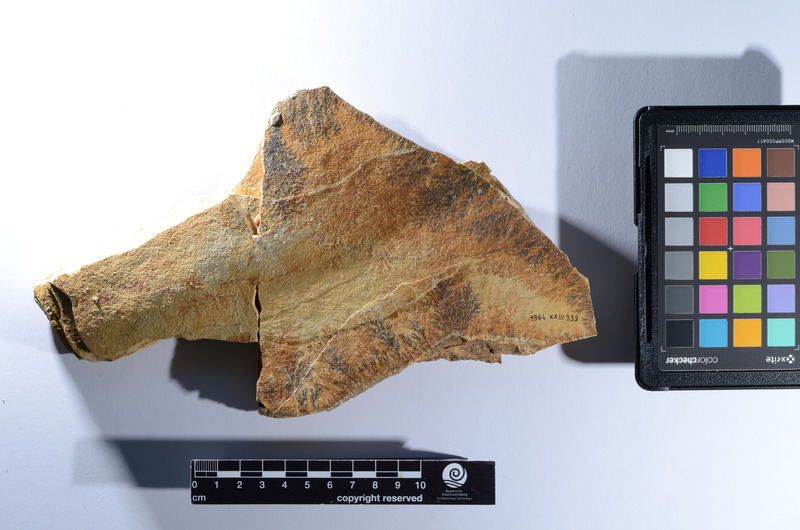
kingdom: Animalia
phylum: Chordata
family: Aspidorhynchidae
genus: Aspidorhynchus
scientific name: Aspidorhynchus
